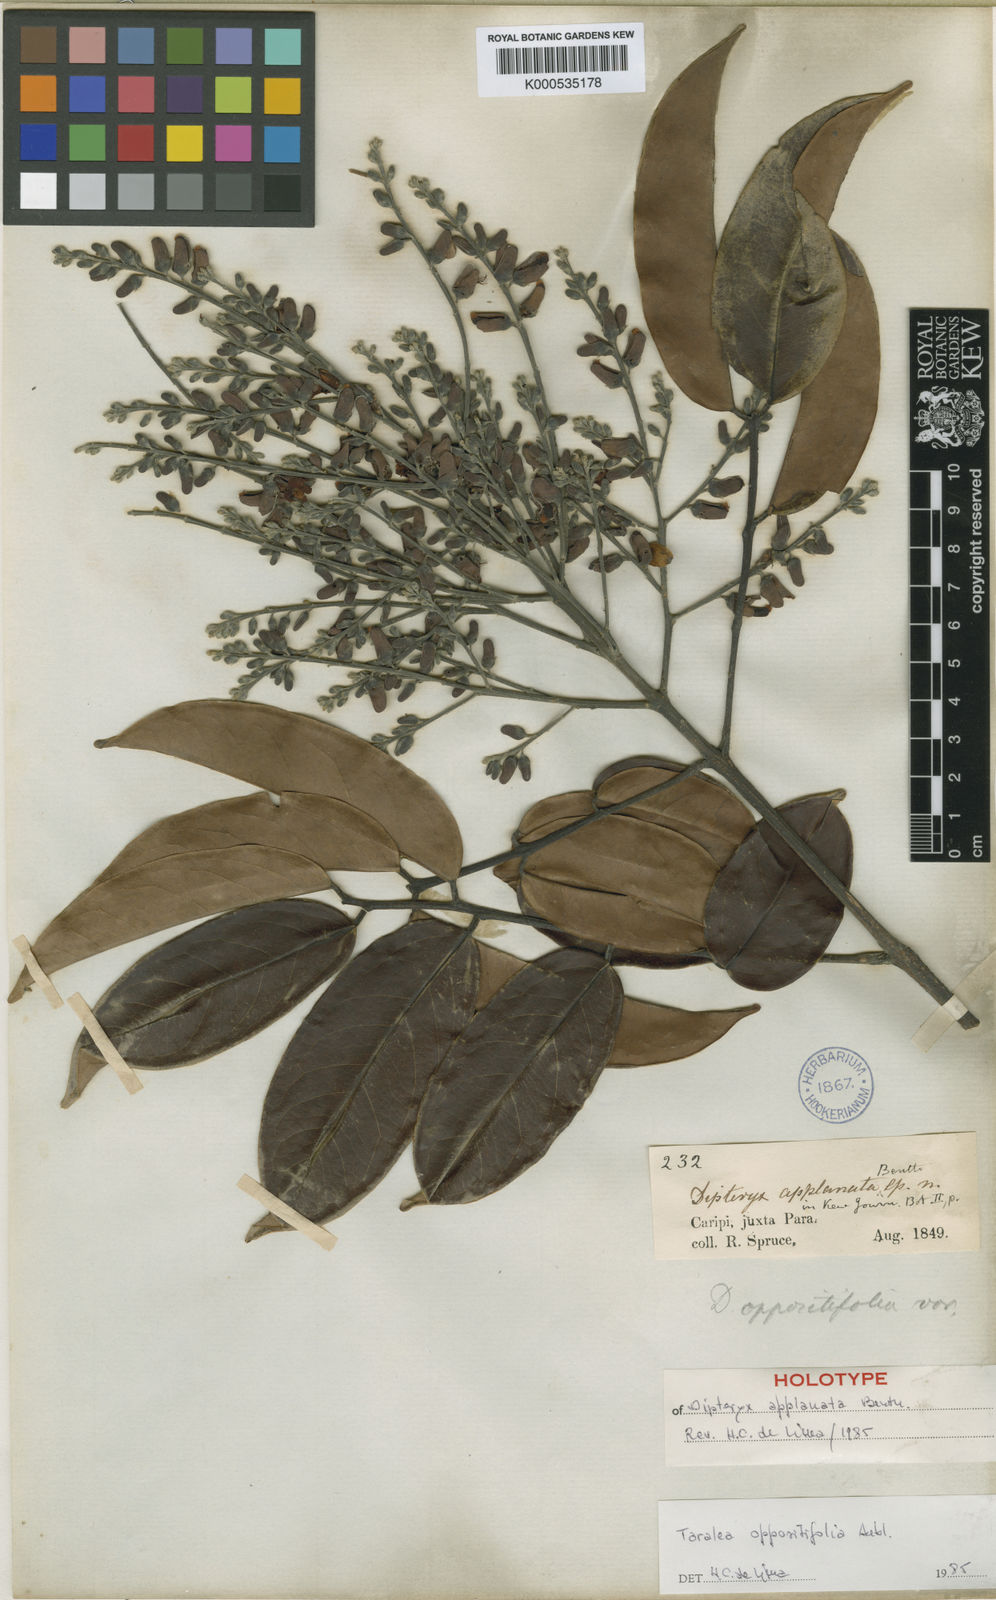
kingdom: Plantae
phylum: Tracheophyta
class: Magnoliopsida
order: Fabales
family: Fabaceae
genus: Taralea
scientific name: Taralea oppositifolia
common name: Tonka
